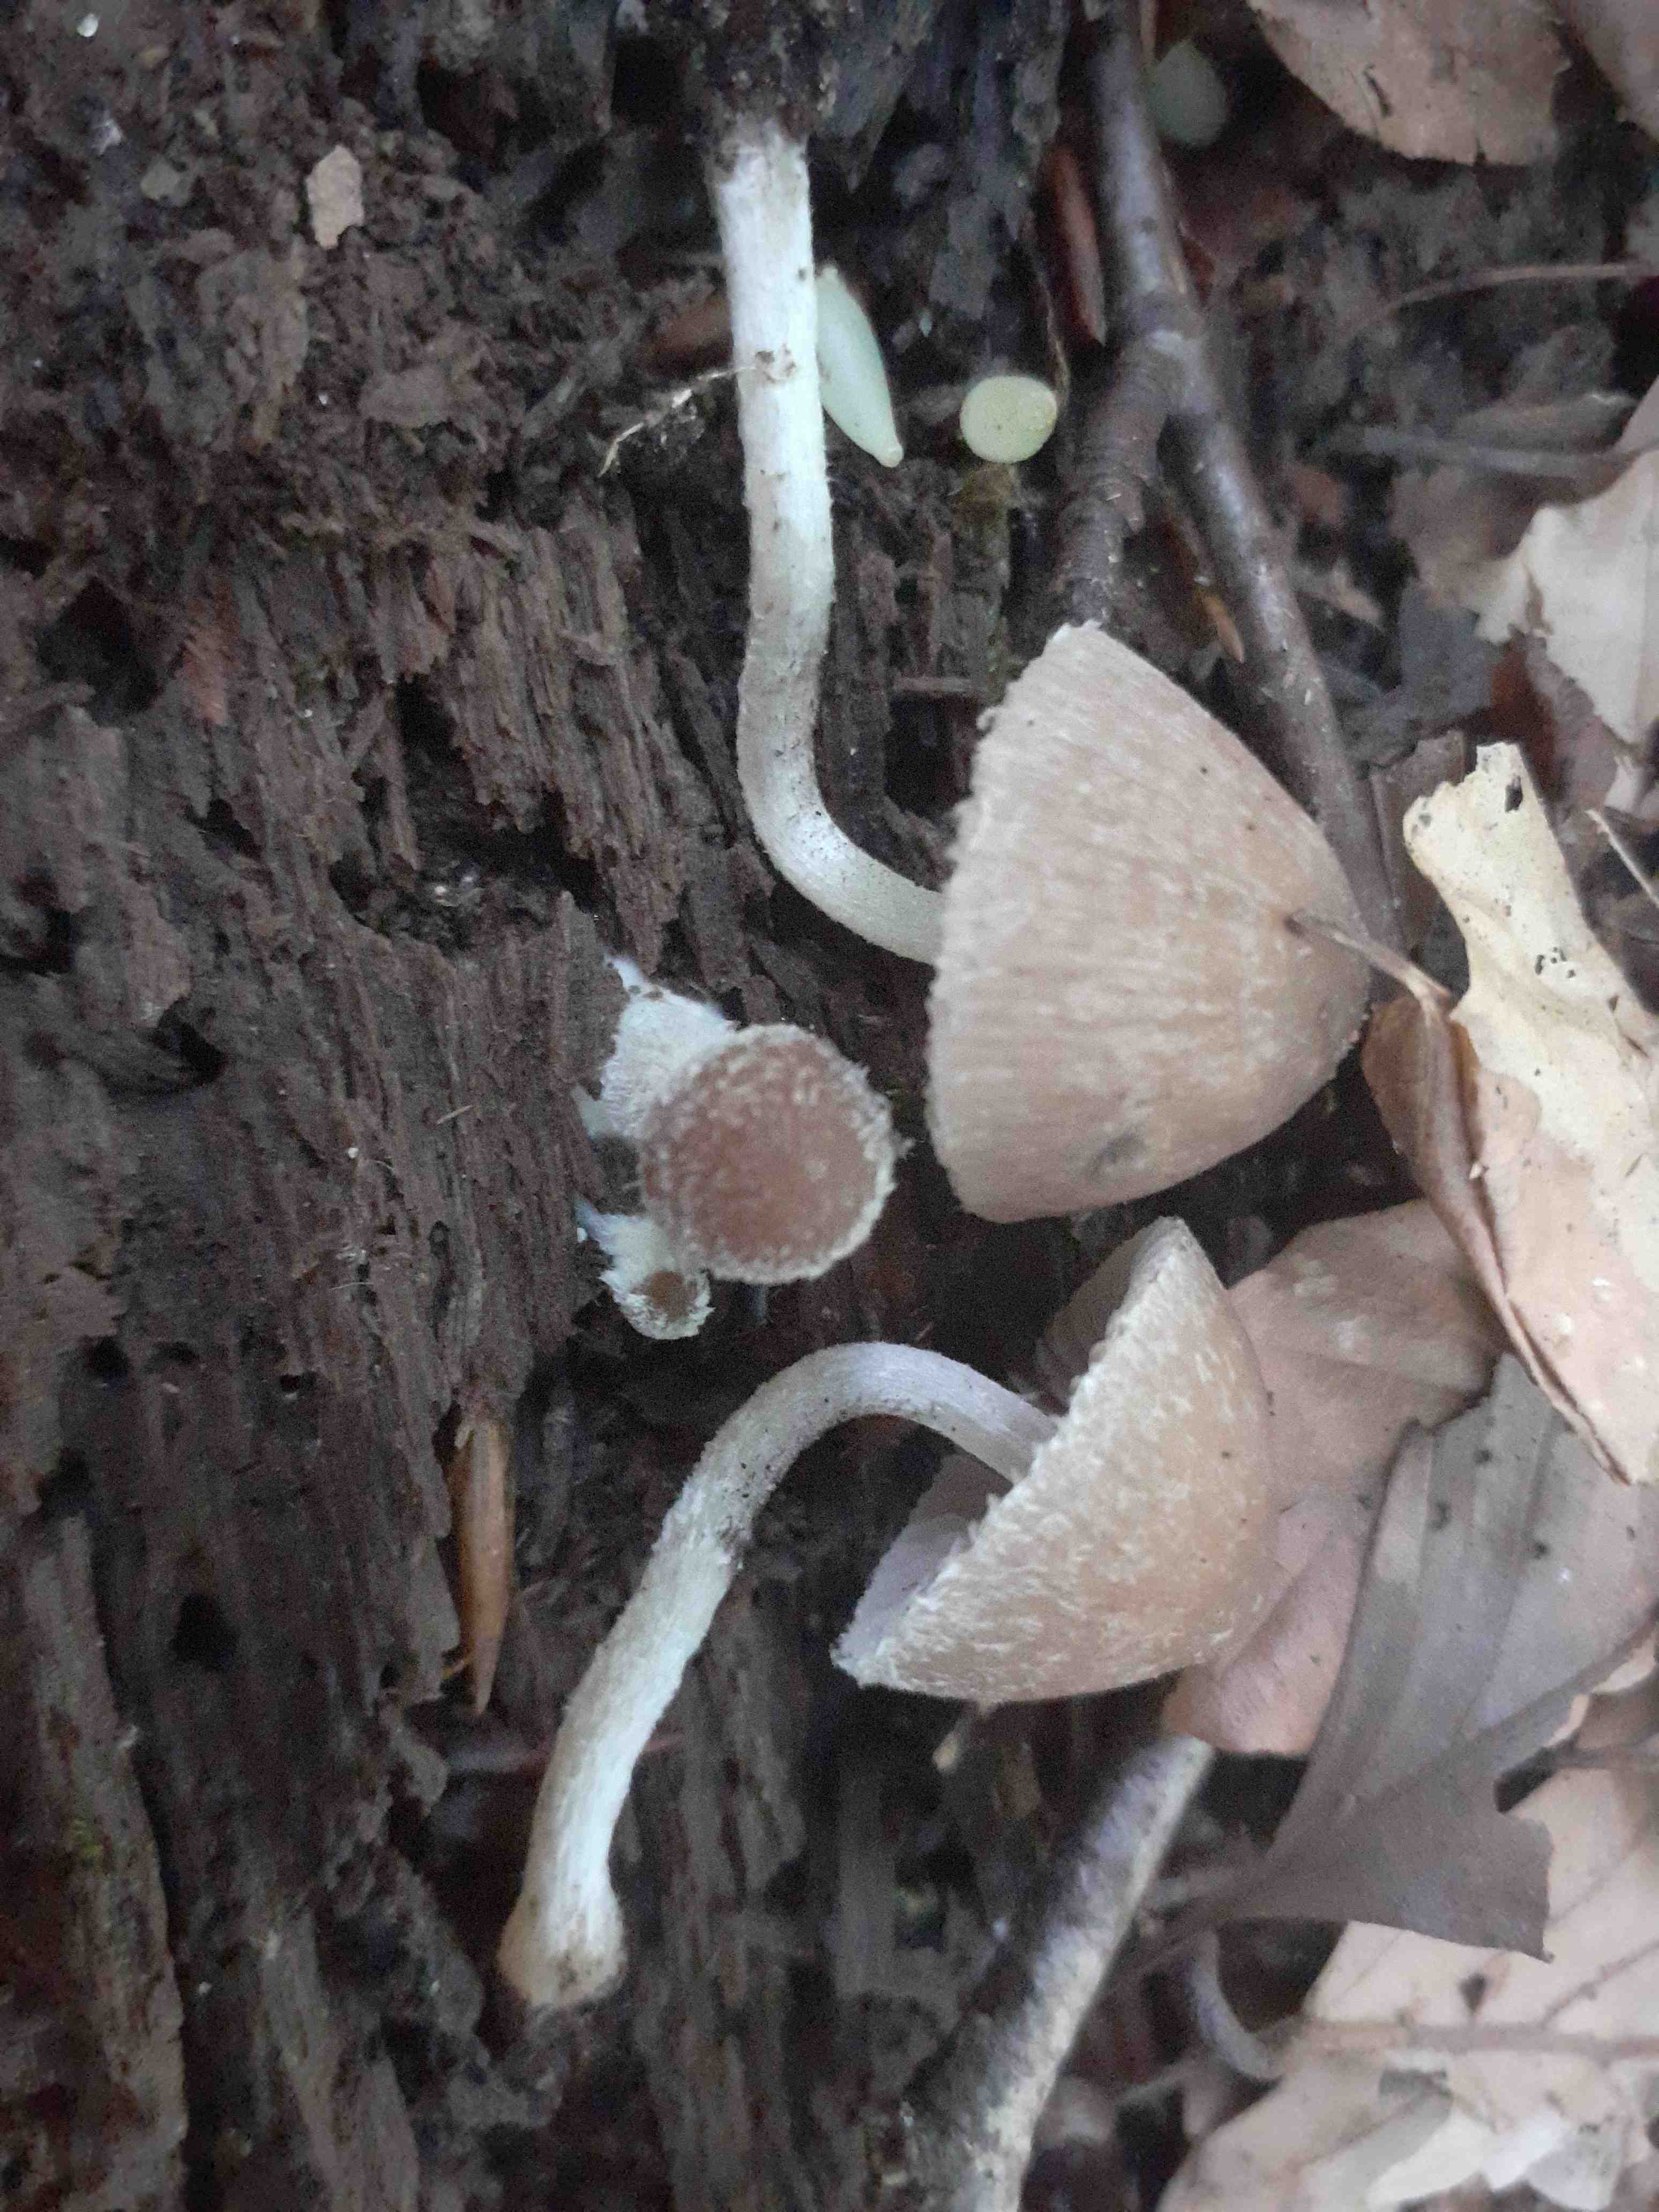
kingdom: Fungi
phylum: Basidiomycota
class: Agaricomycetes
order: Agaricales
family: Psathyrellaceae
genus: Psathyrella
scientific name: Psathyrella impexa
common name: rødmende mørkhat
